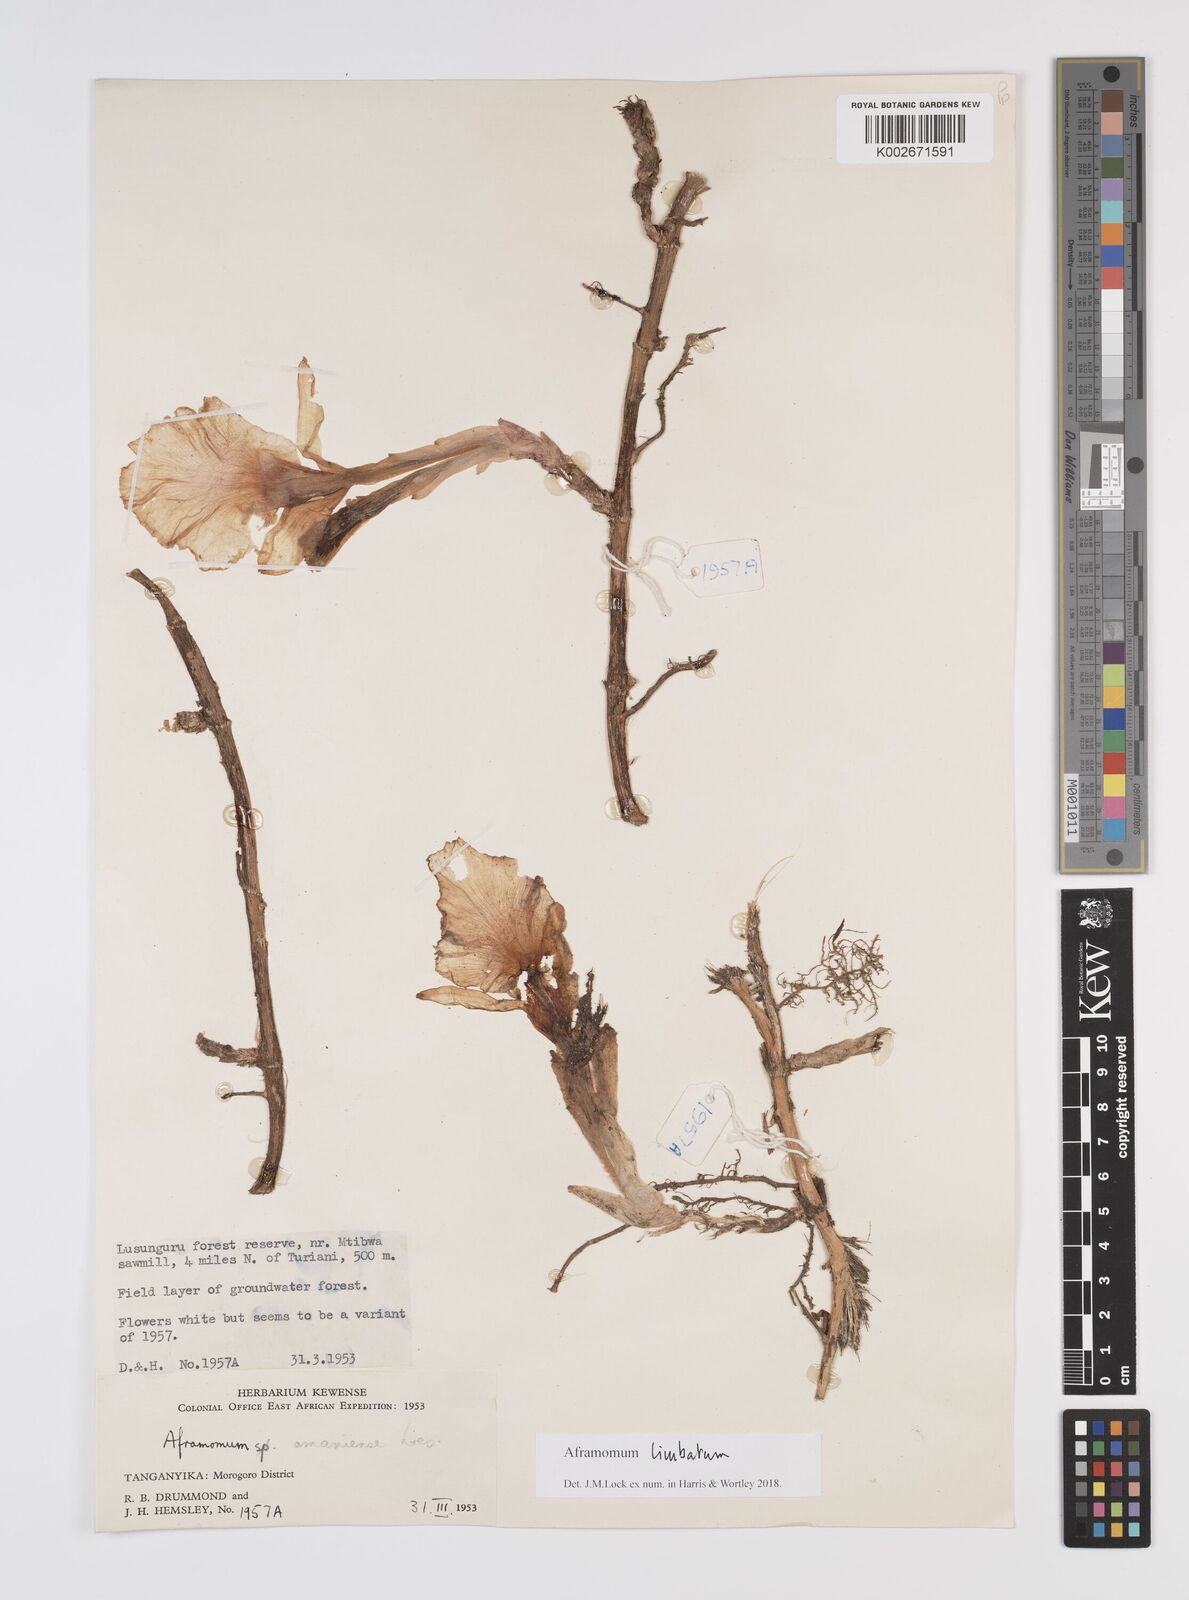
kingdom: Plantae
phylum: Tracheophyta
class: Liliopsida
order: Zingiberales
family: Zingiberaceae
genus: Aframomum
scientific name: Aframomum limbatum
